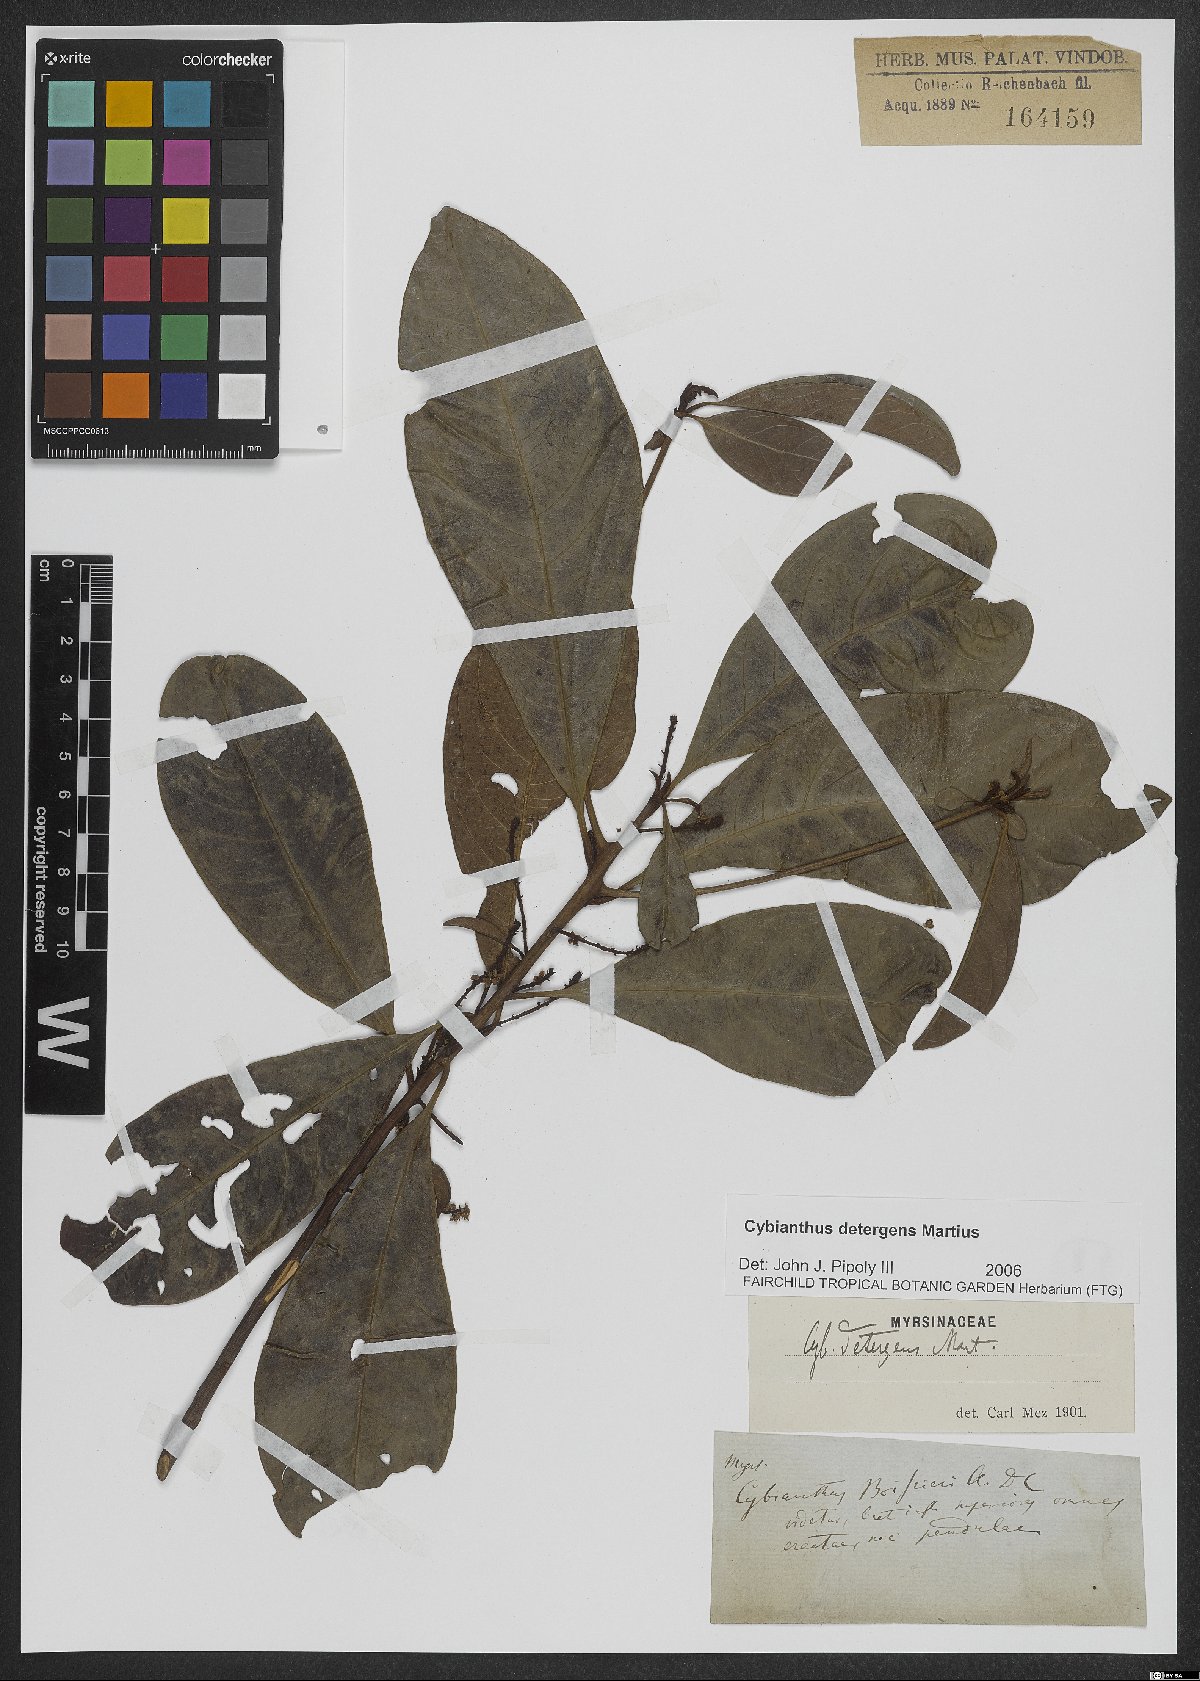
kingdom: Plantae
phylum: Tracheophyta
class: Magnoliopsida
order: Ericales
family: Primulaceae
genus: Cybianthus
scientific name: Cybianthus detergens
